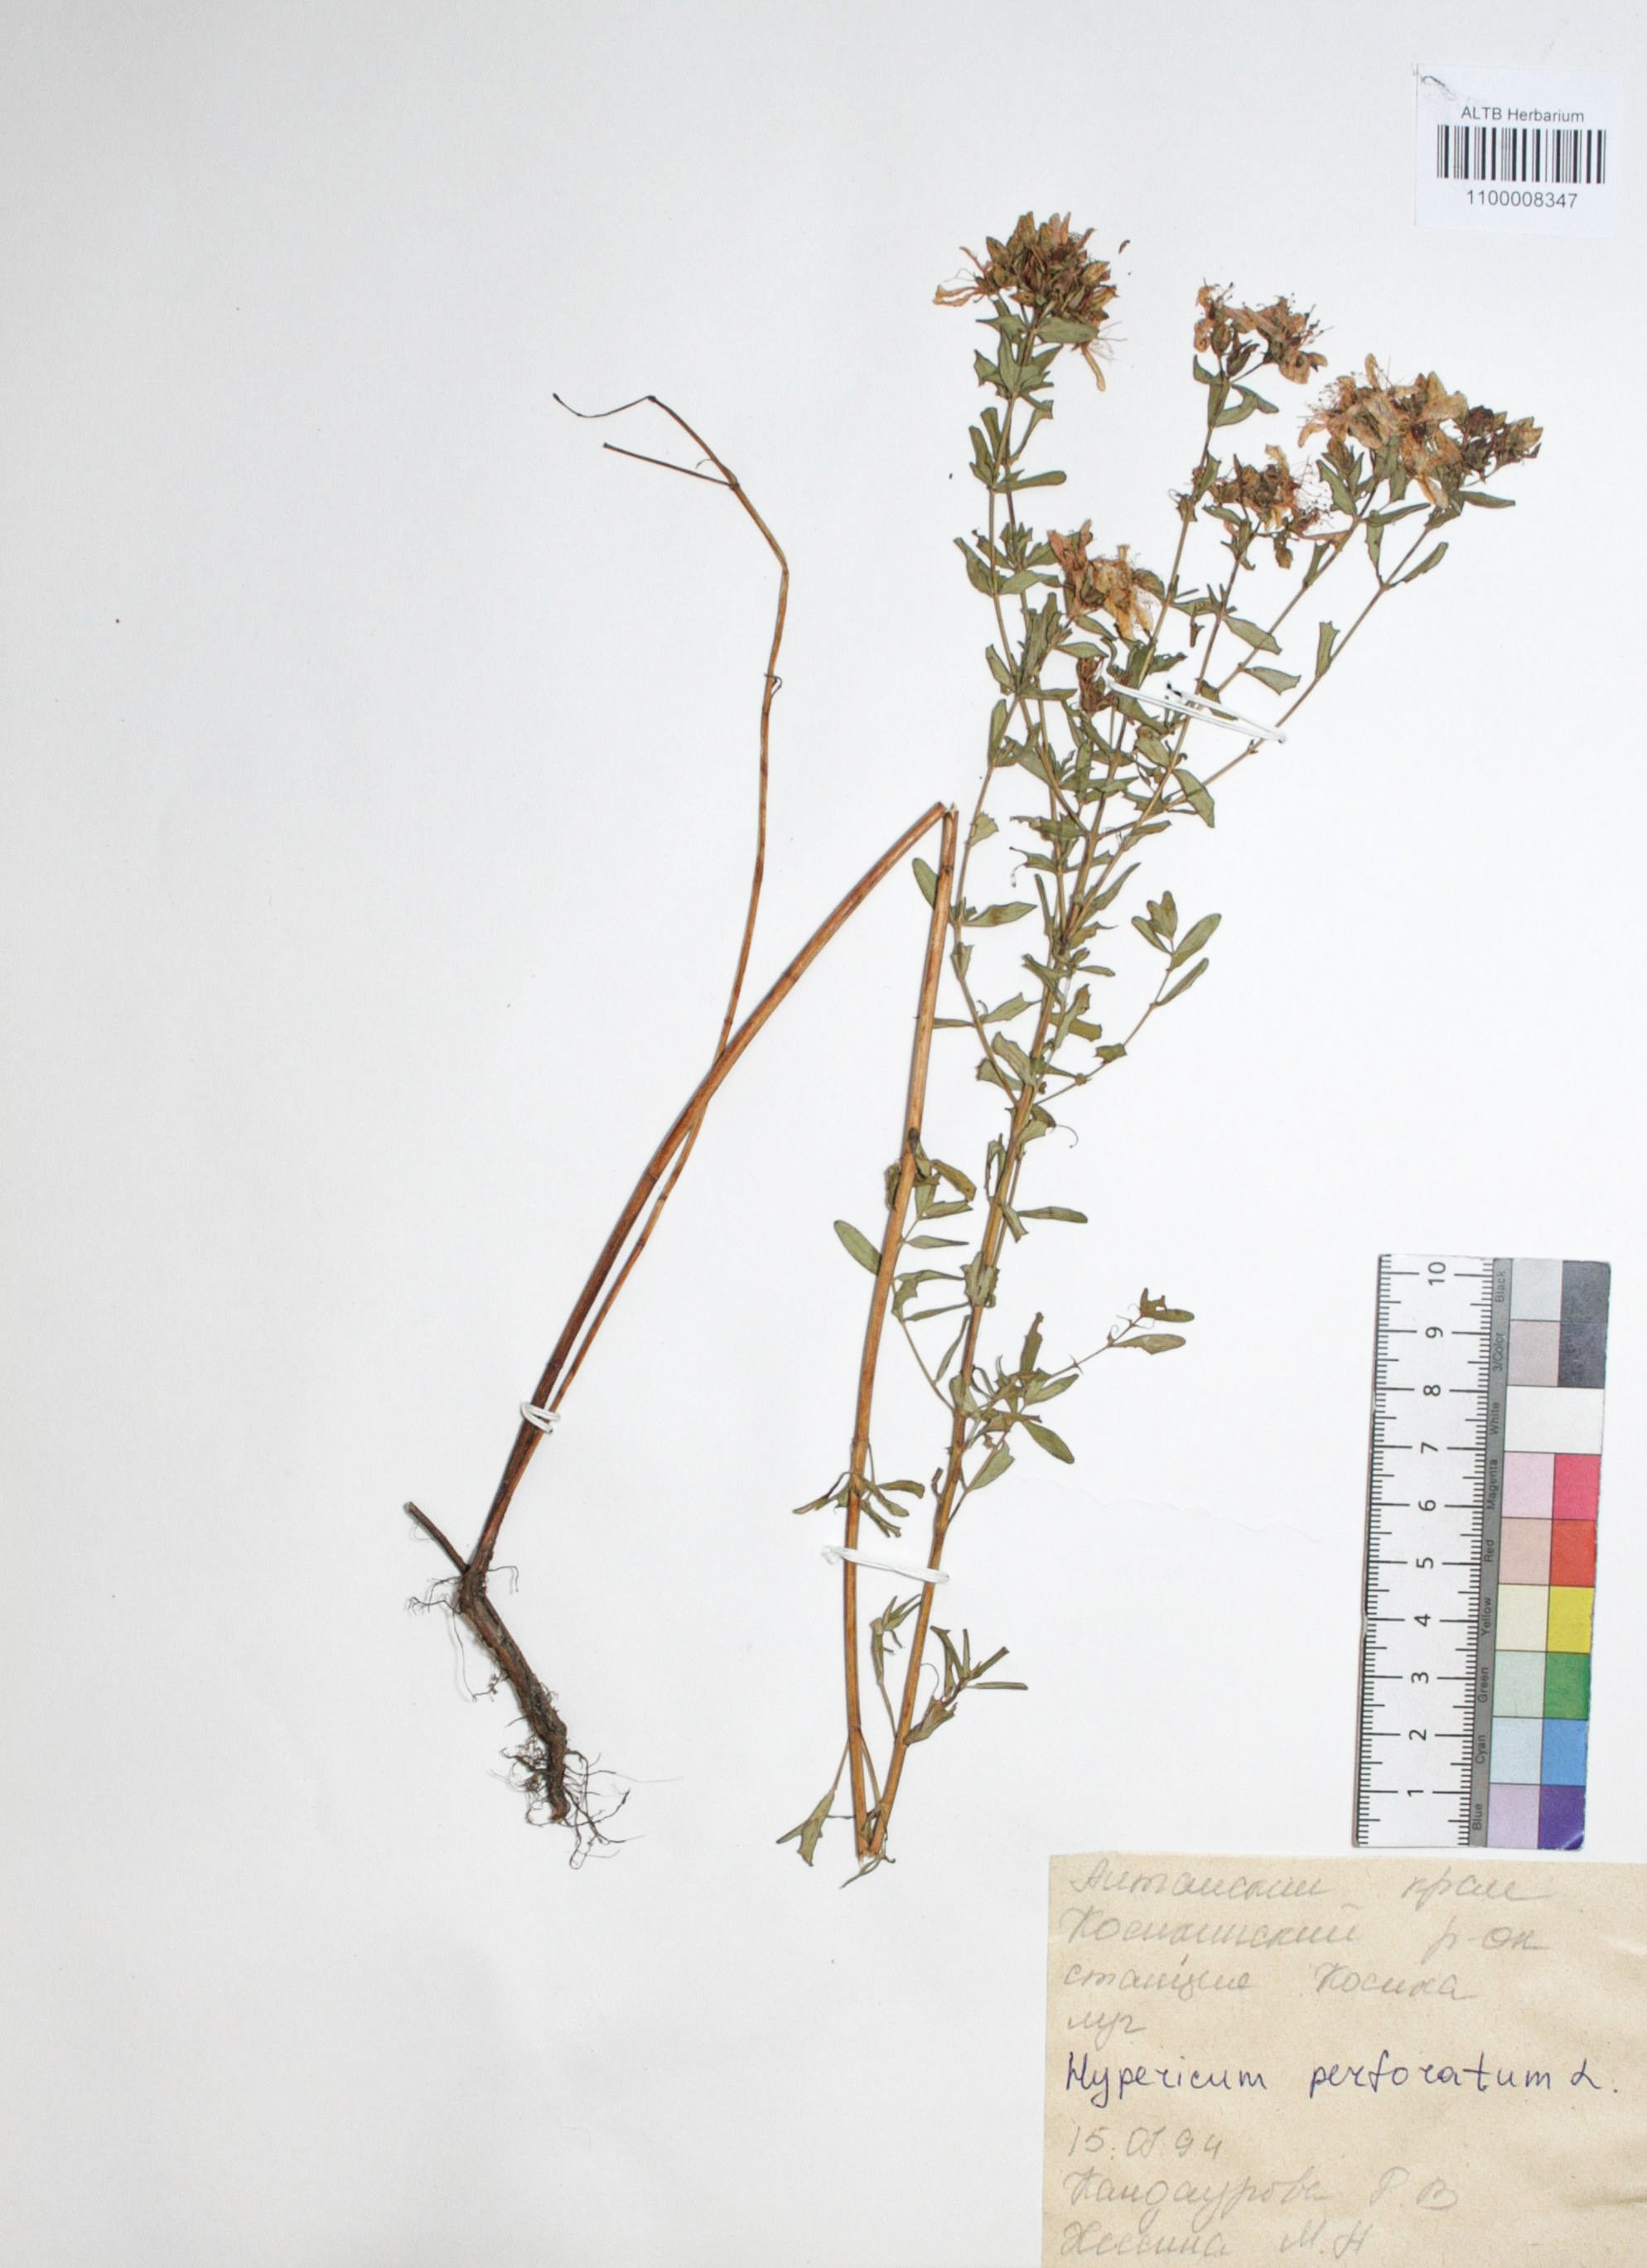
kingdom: Plantae
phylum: Tracheophyta
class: Magnoliopsida
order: Malpighiales
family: Hypericaceae
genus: Hypericum
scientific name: Hypericum perforatum
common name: Common st. johnswort
